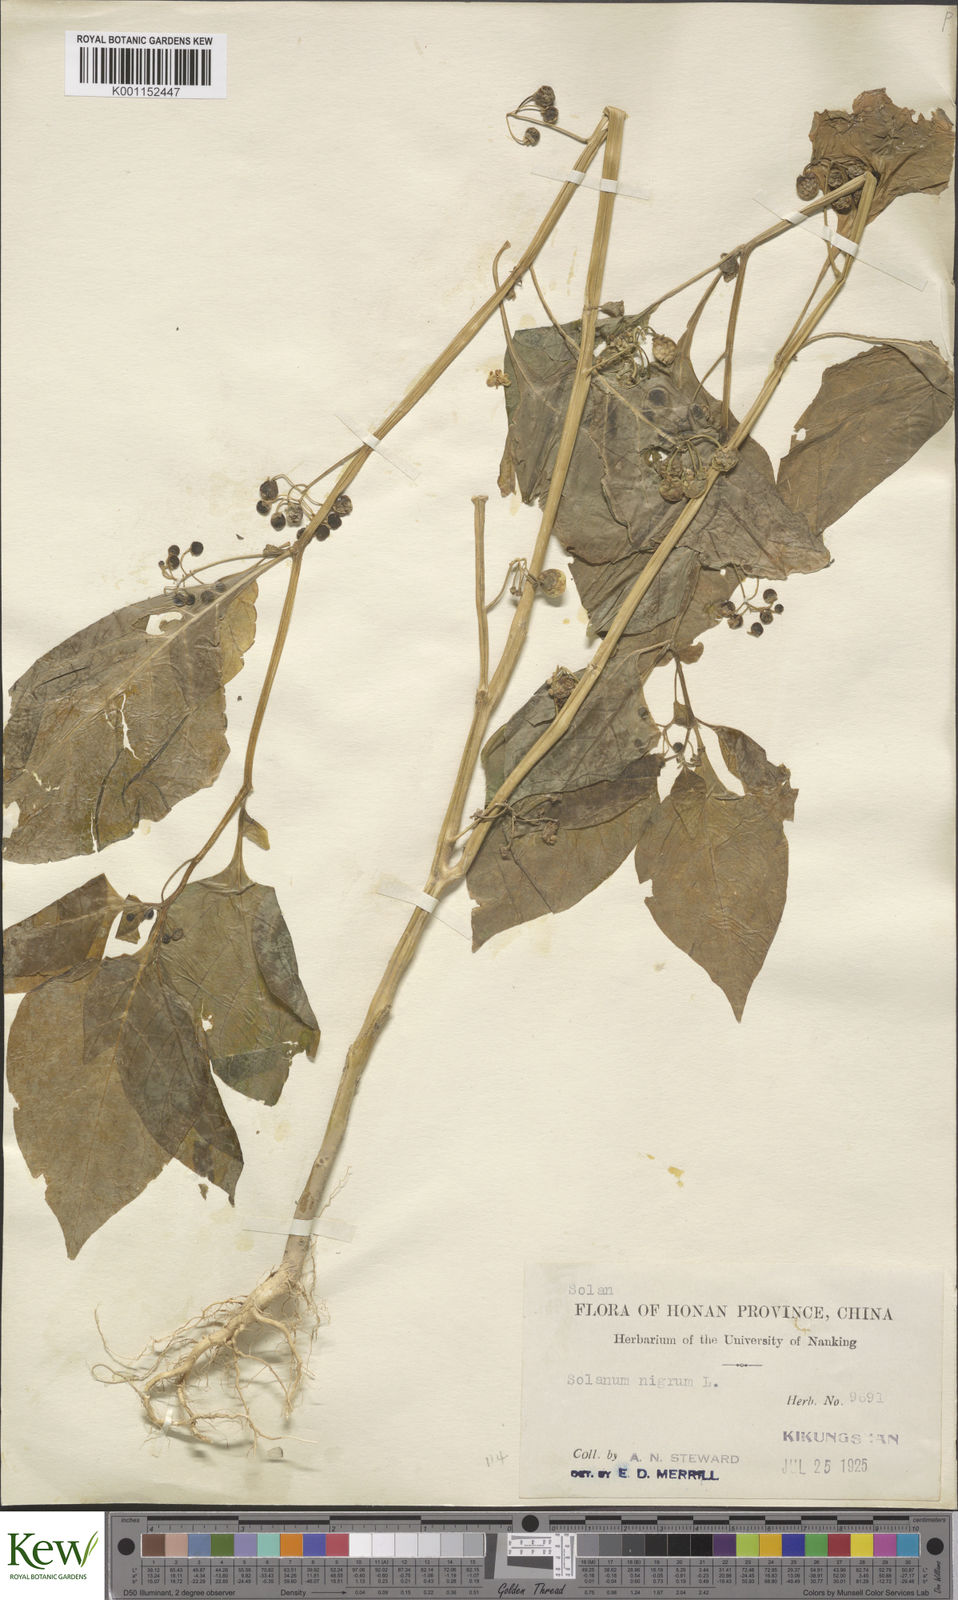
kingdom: Plantae
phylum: Tracheophyta
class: Magnoliopsida
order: Solanales
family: Solanaceae
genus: Solanum
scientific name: Solanum americanum
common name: American black nightshade
